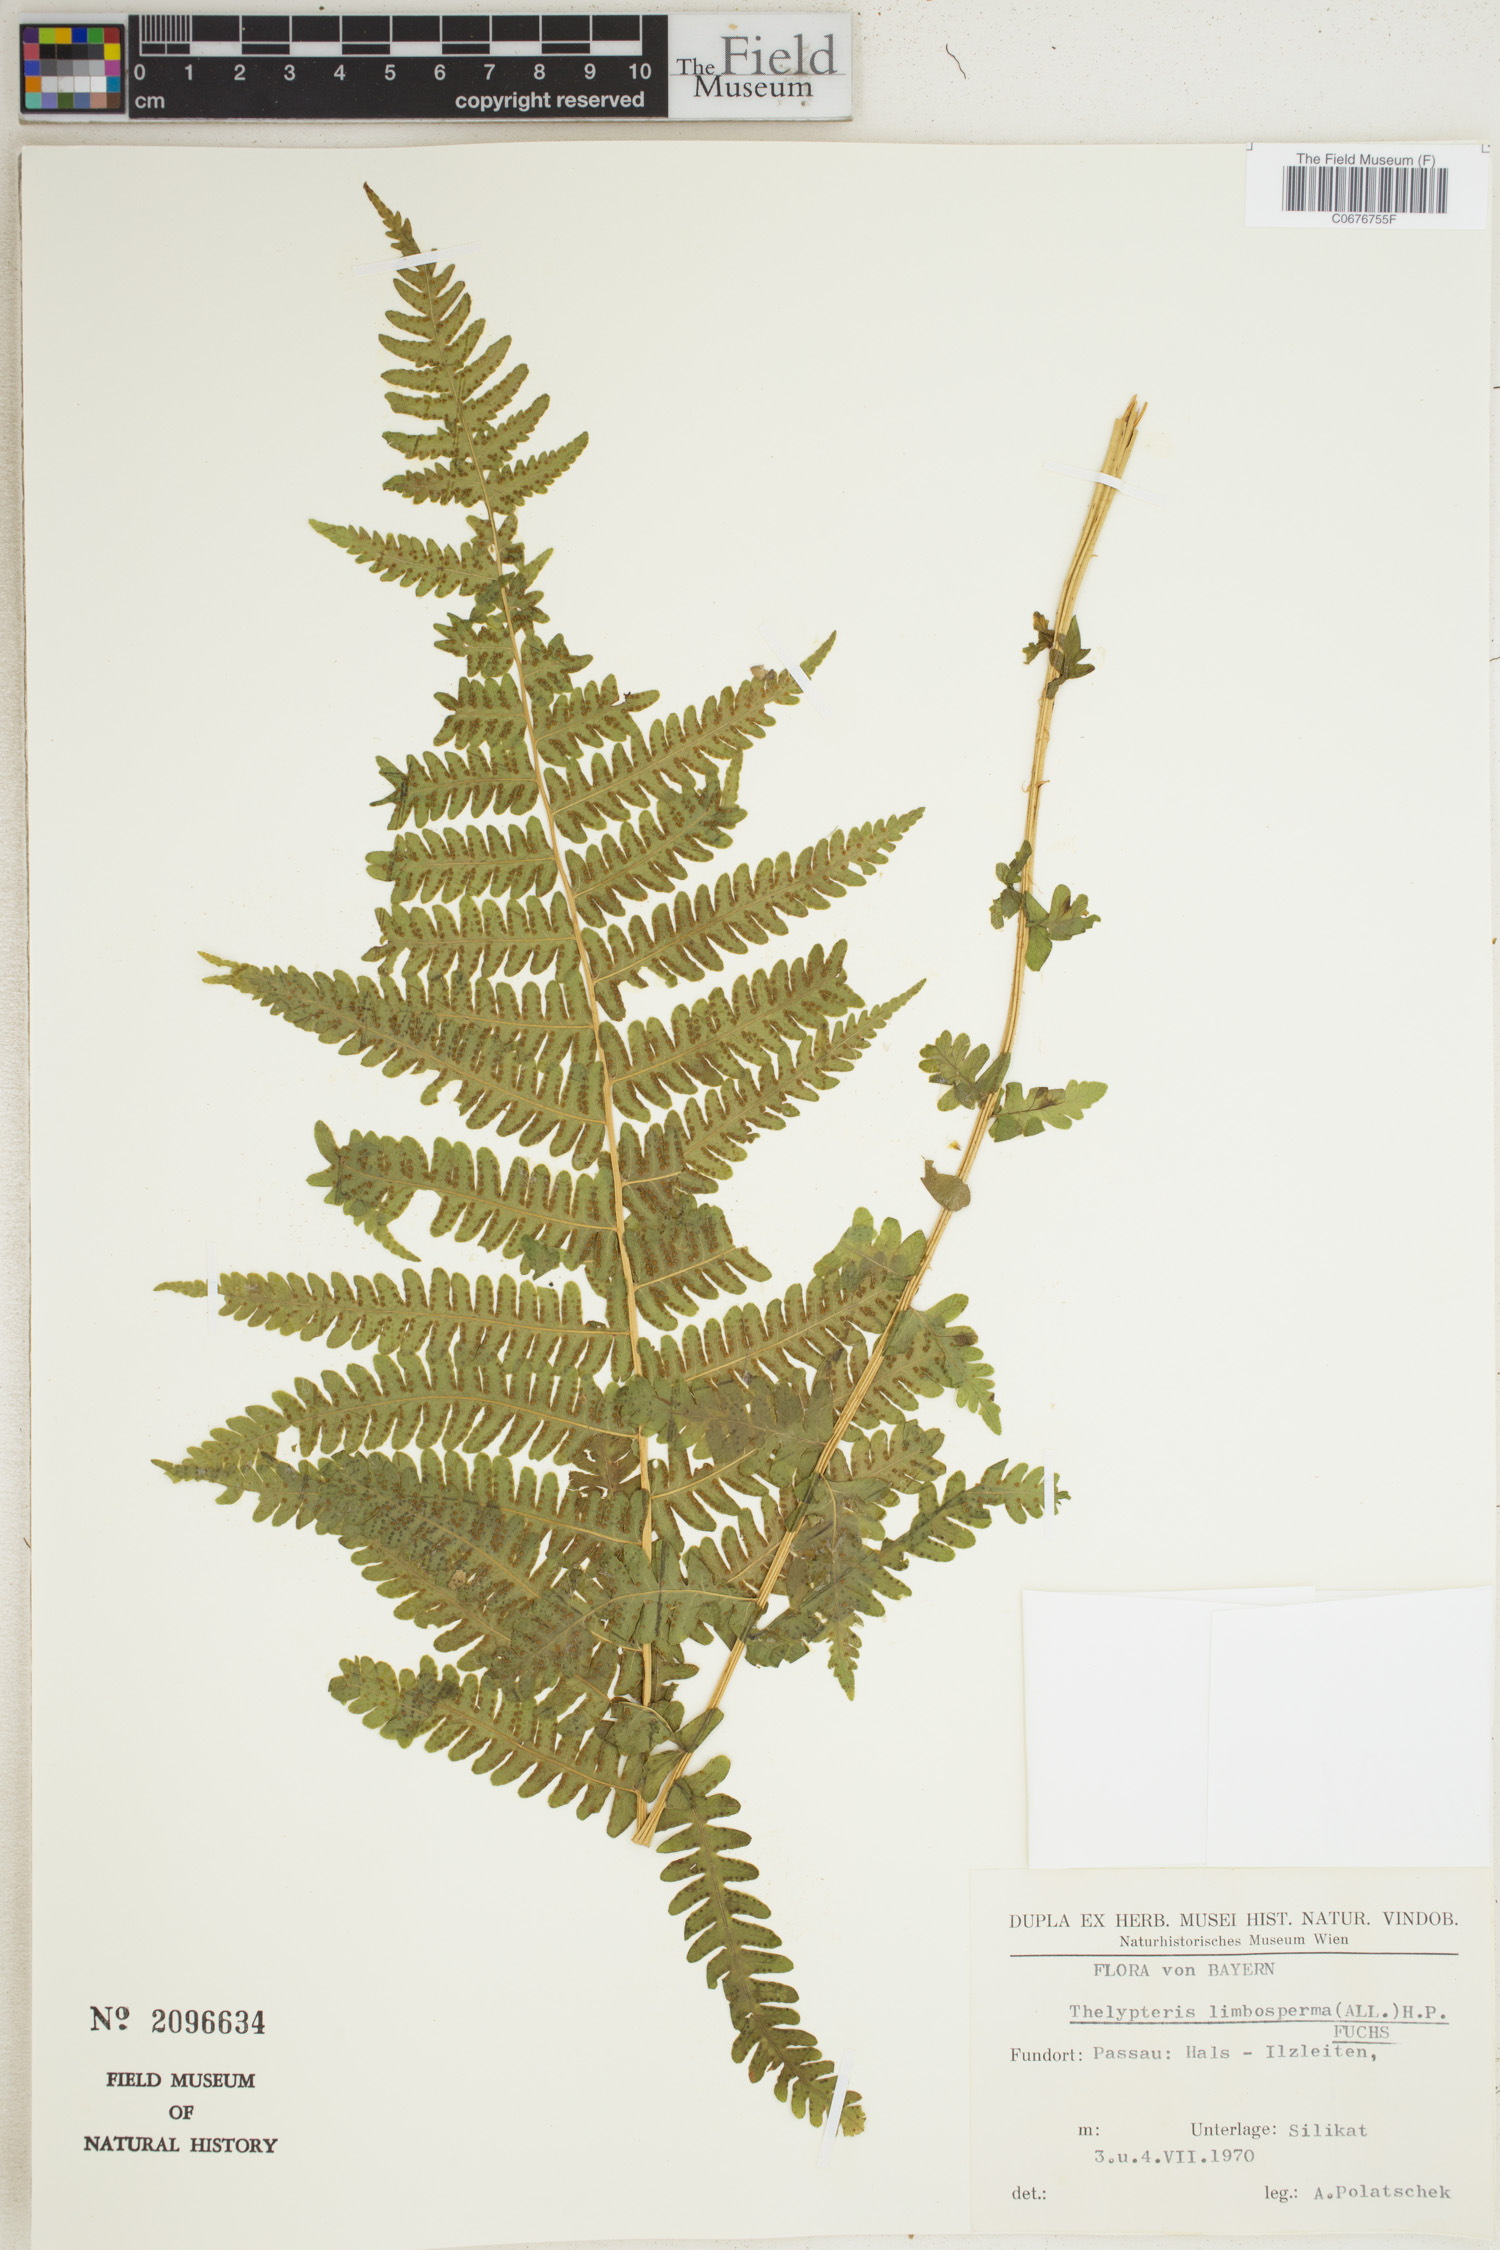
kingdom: Plantae
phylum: Tracheophyta
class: Polypodiopsida
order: Polypodiales
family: Thelypteridaceae
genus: Oreopteris
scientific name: Oreopteris limbosperma
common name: Lemon-scented fern
